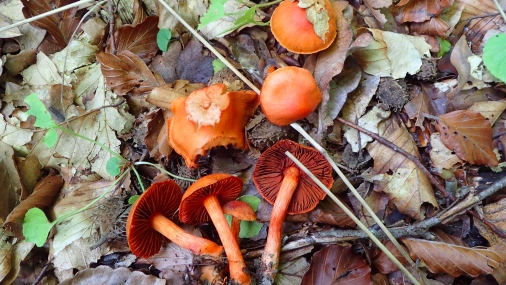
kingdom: Fungi
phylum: Basidiomycota
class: Agaricomycetes
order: Agaricales
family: Cortinariaceae
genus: Cortinarius
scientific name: Cortinarius cinnabarinus
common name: cinnober-slørhat
